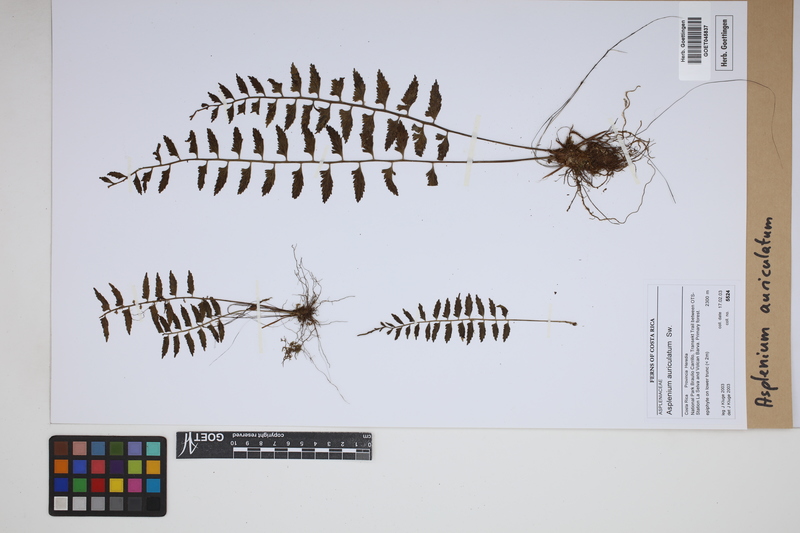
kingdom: Plantae
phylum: Tracheophyta
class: Polypodiopsida
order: Polypodiales
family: Aspleniaceae
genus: Asplenium
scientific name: Asplenium auriculatum
